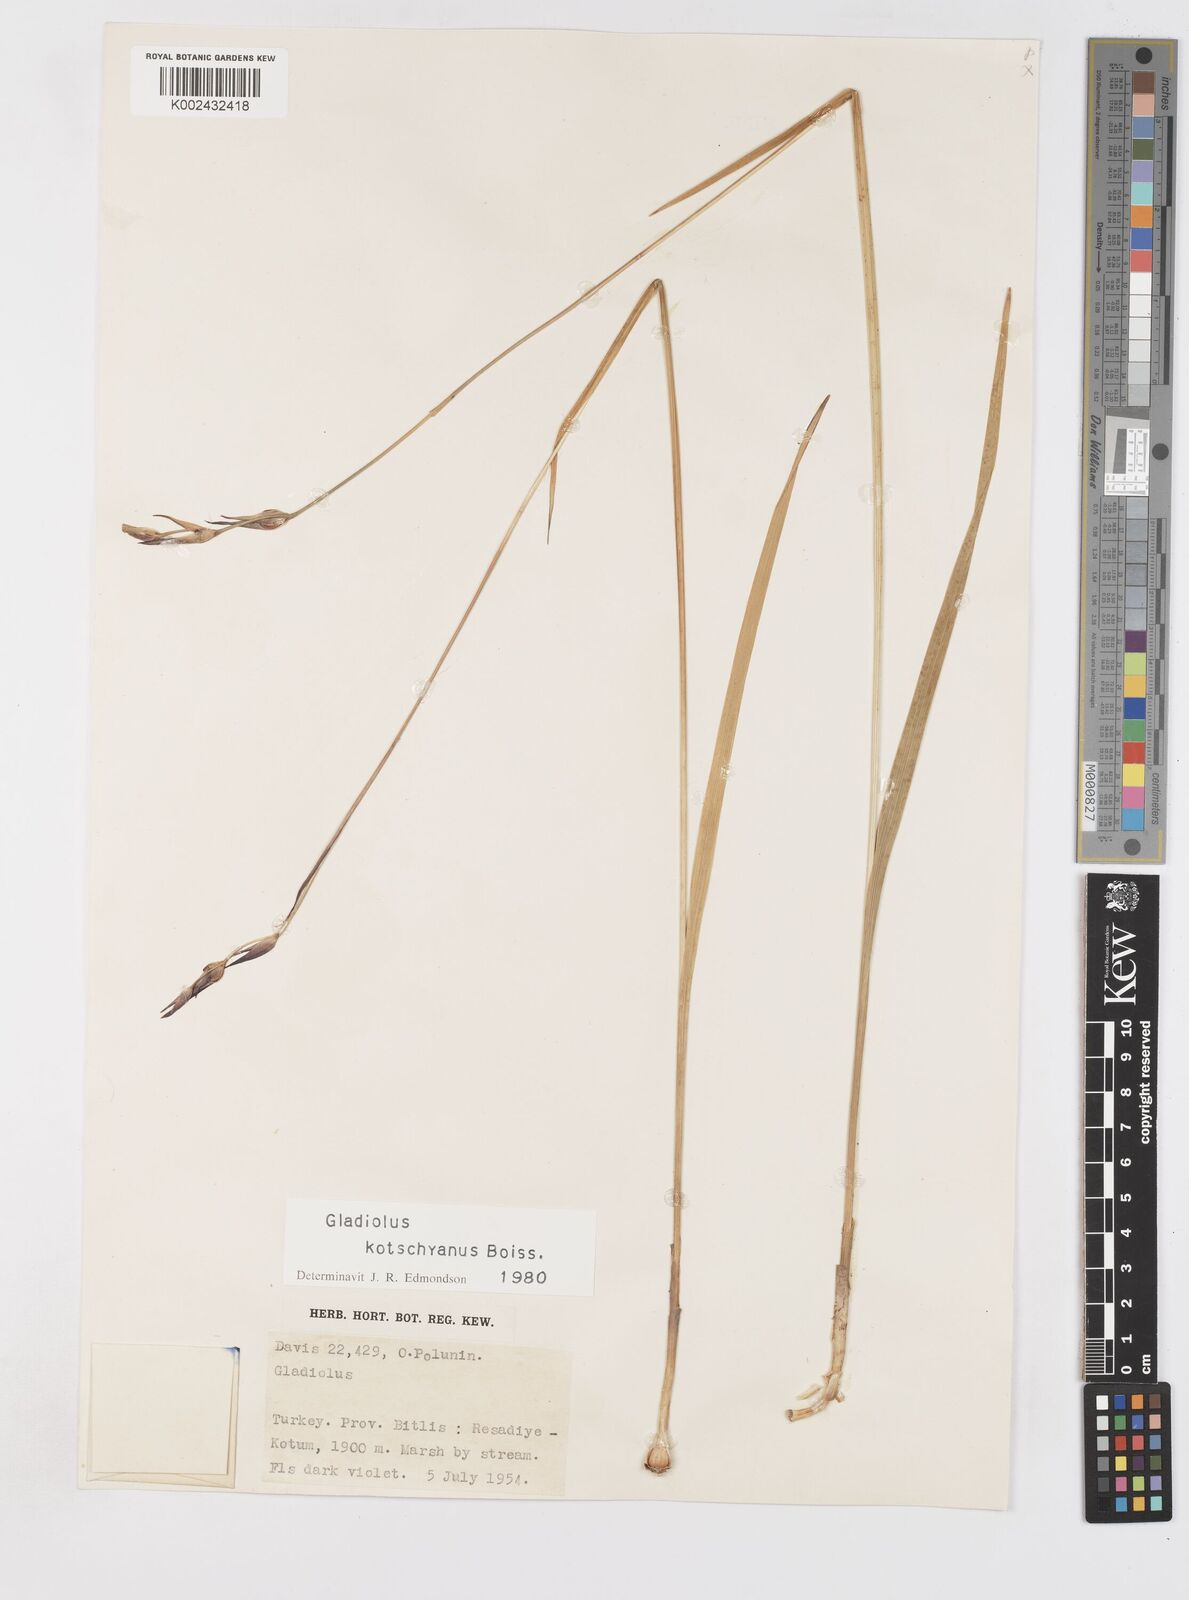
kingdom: Plantae
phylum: Tracheophyta
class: Liliopsida
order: Asparagales
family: Iridaceae
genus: Gladiolus
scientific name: Gladiolus kotschyanus
